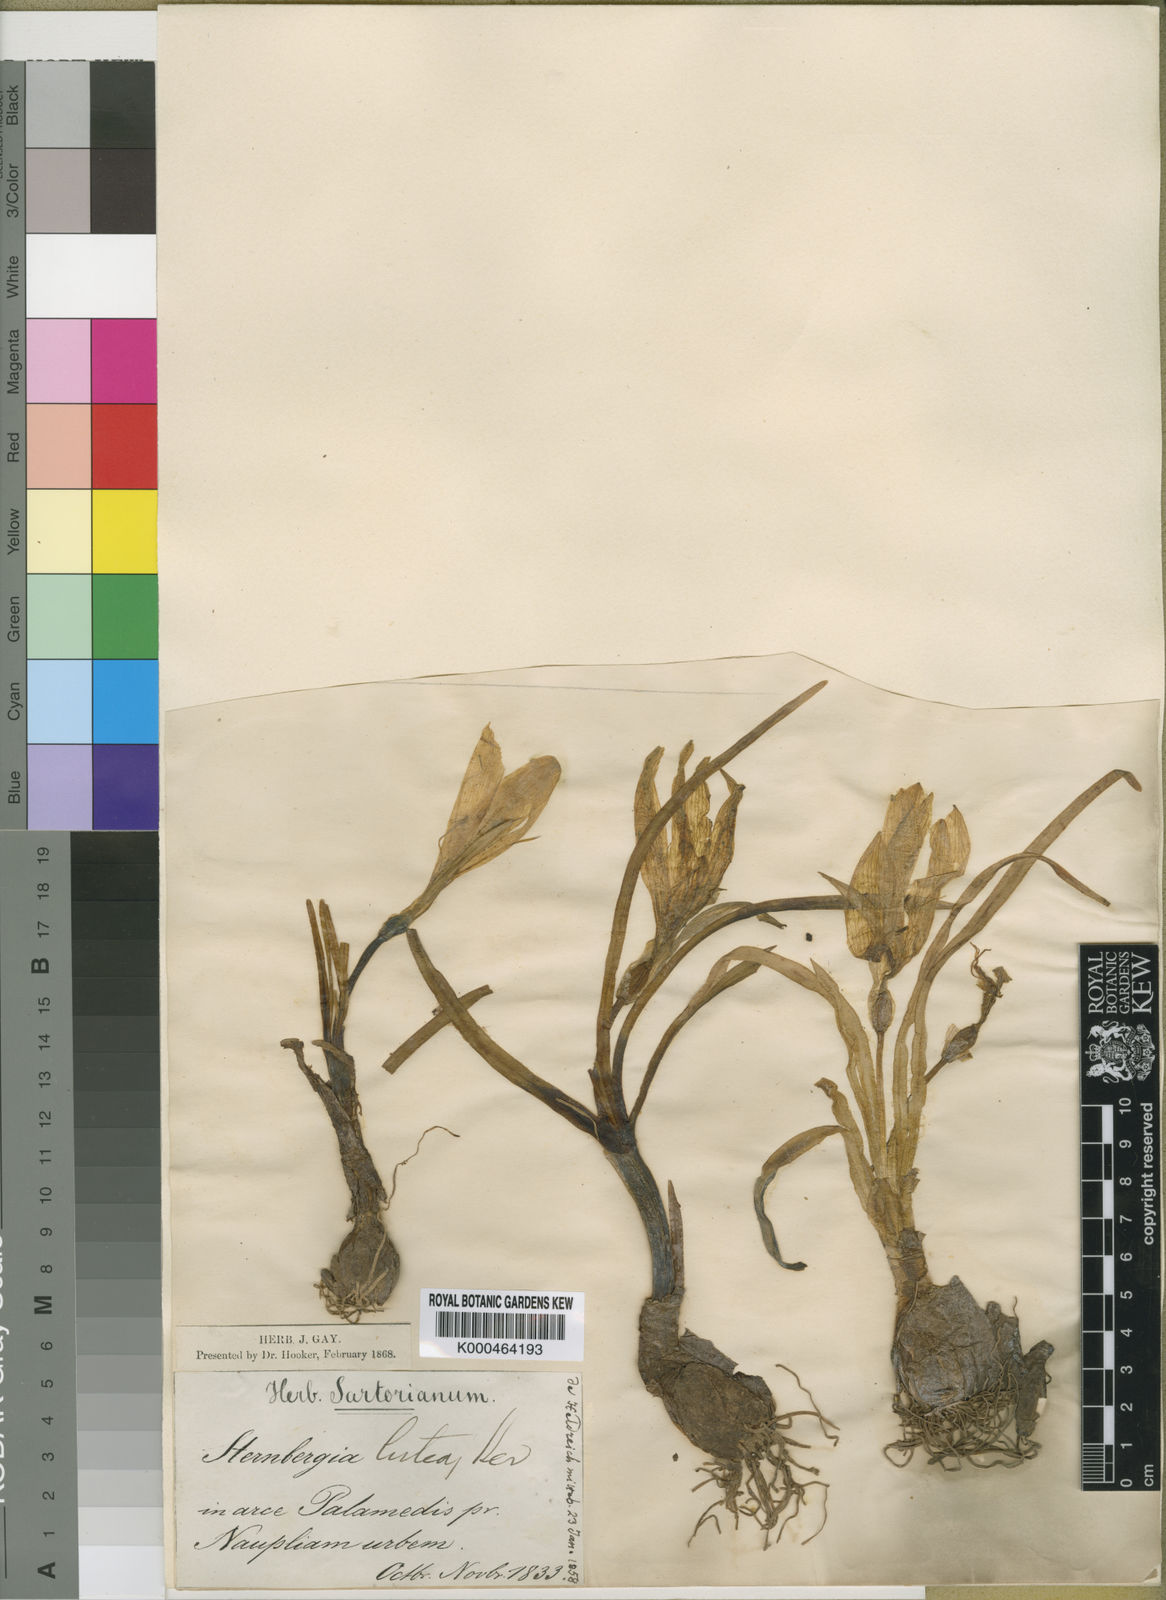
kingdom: Plantae
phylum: Tracheophyta
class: Liliopsida
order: Asparagales
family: Amaryllidaceae
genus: Sternbergia
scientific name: Sternbergia
